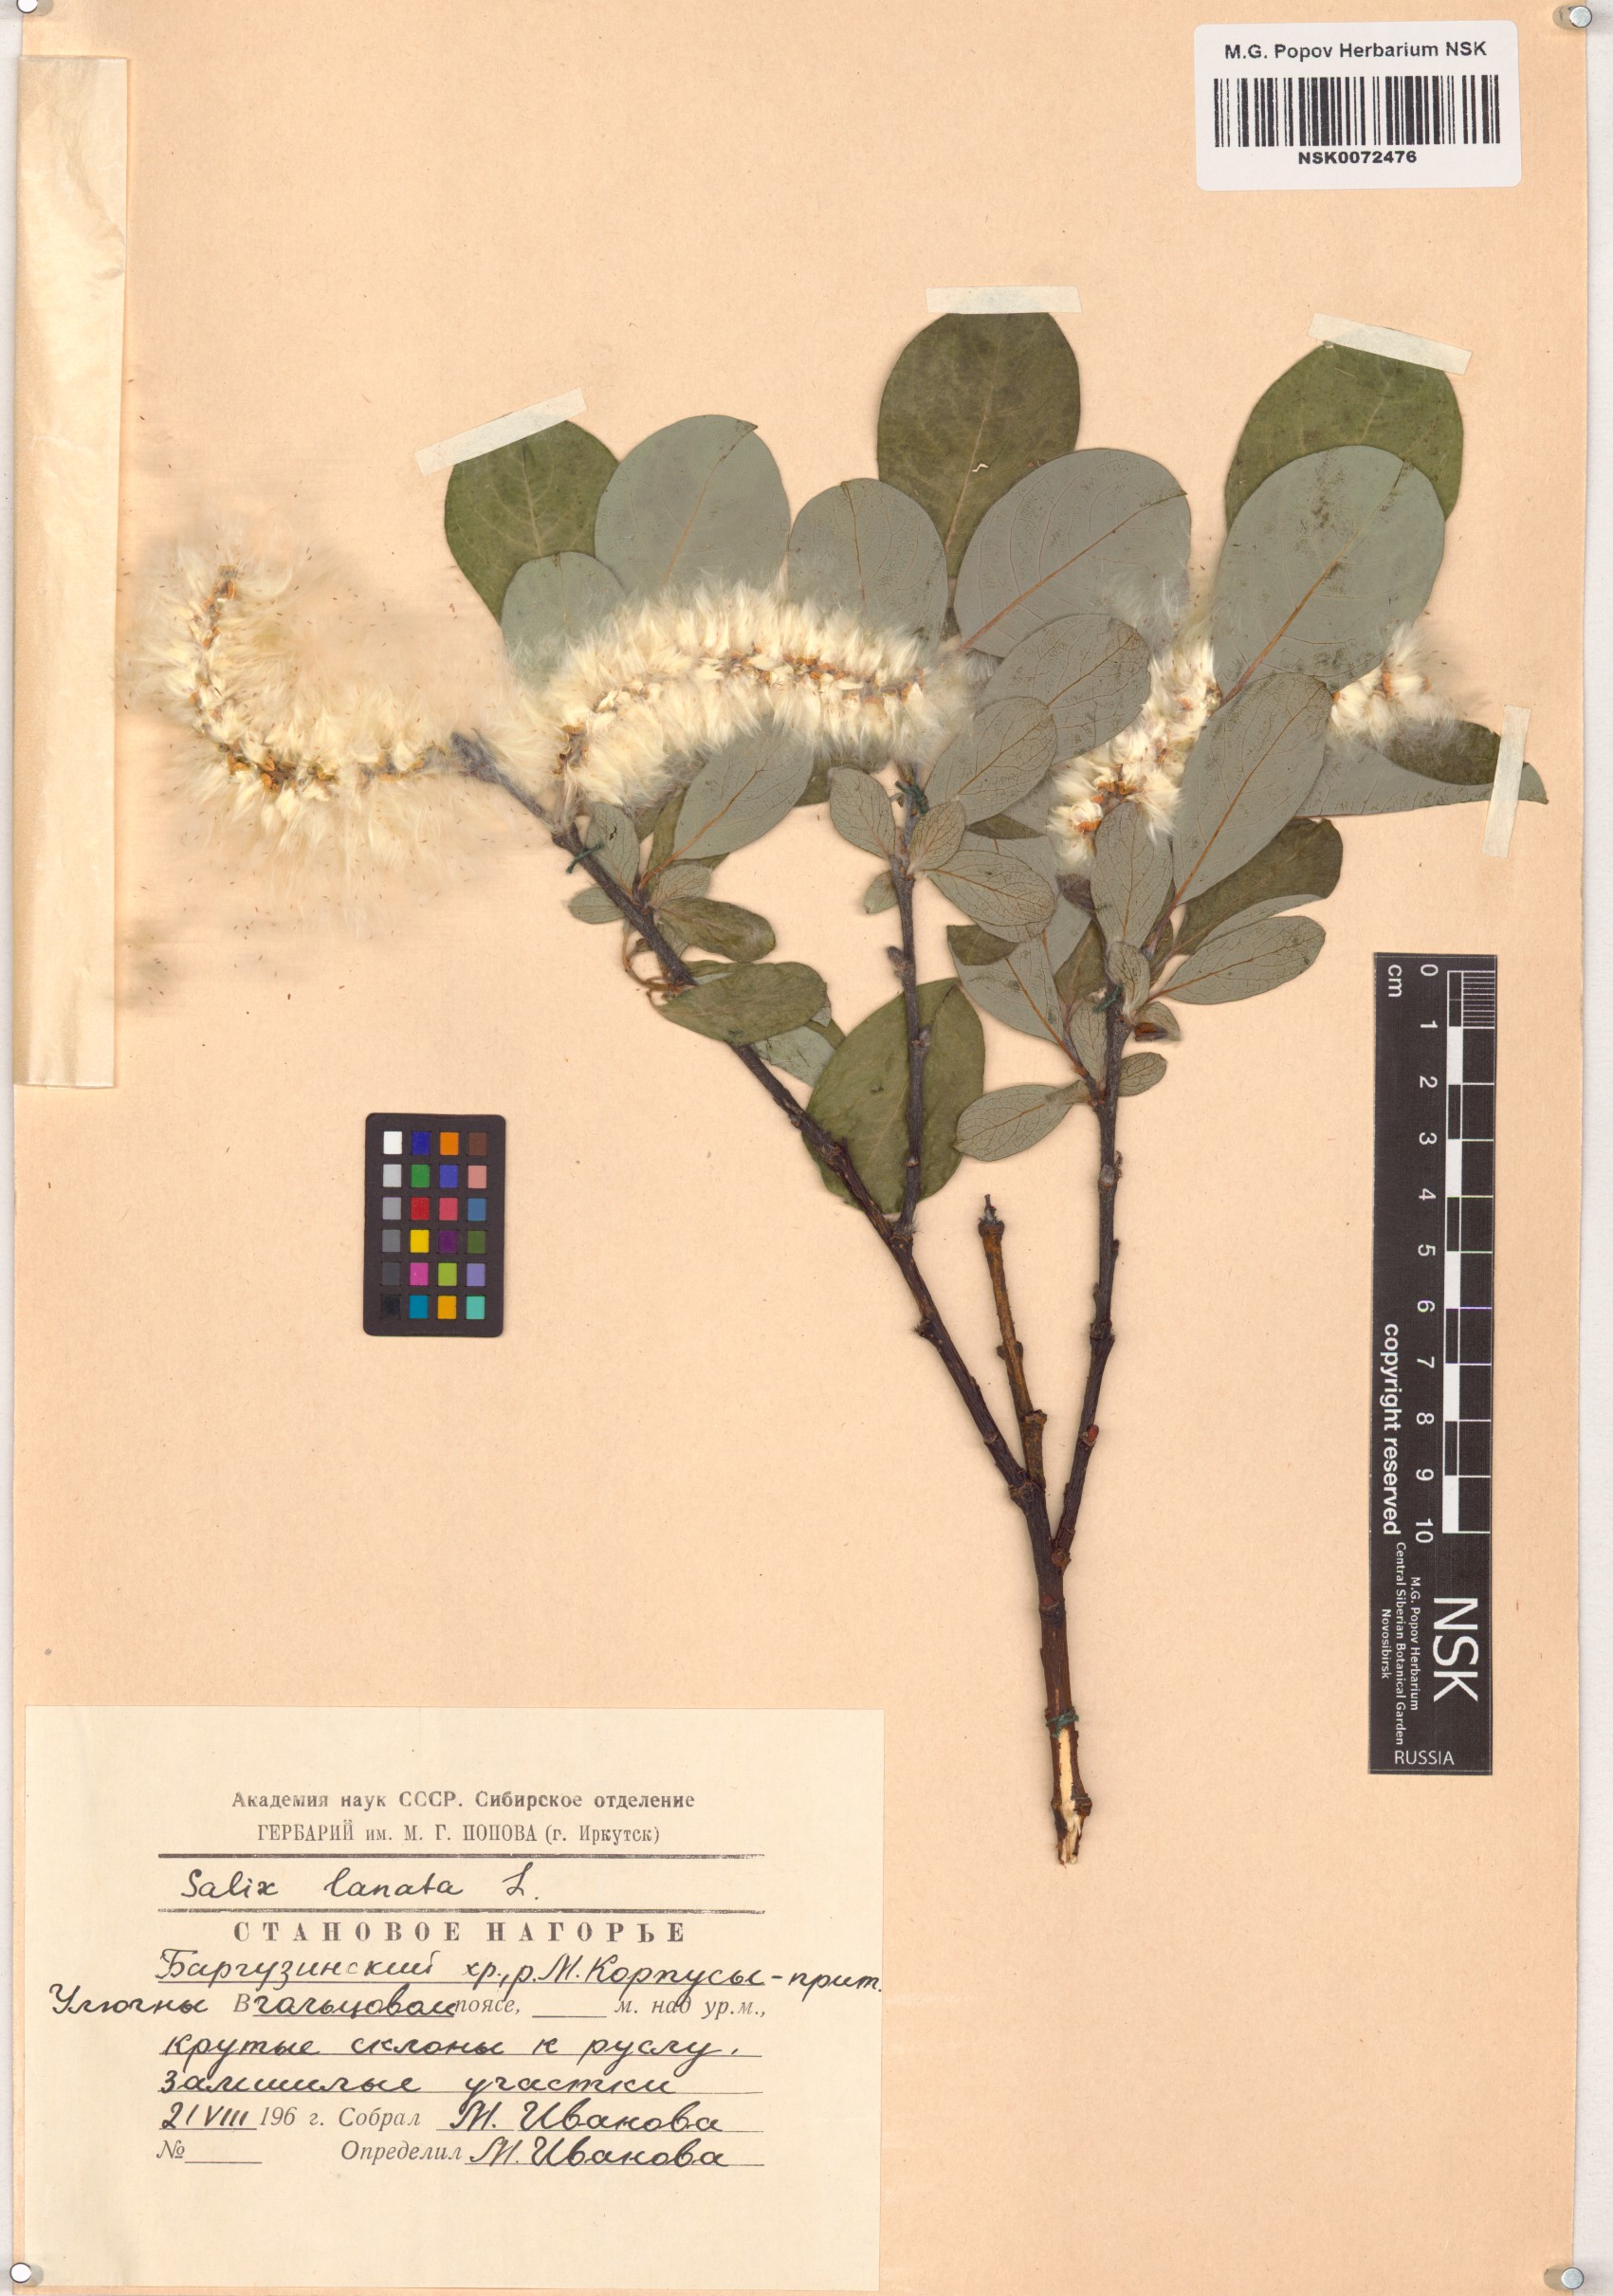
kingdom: Plantae
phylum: Tracheophyta
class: Magnoliopsida
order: Malpighiales
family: Salicaceae
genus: Salix
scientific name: Salix lanata
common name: Woolly willow
